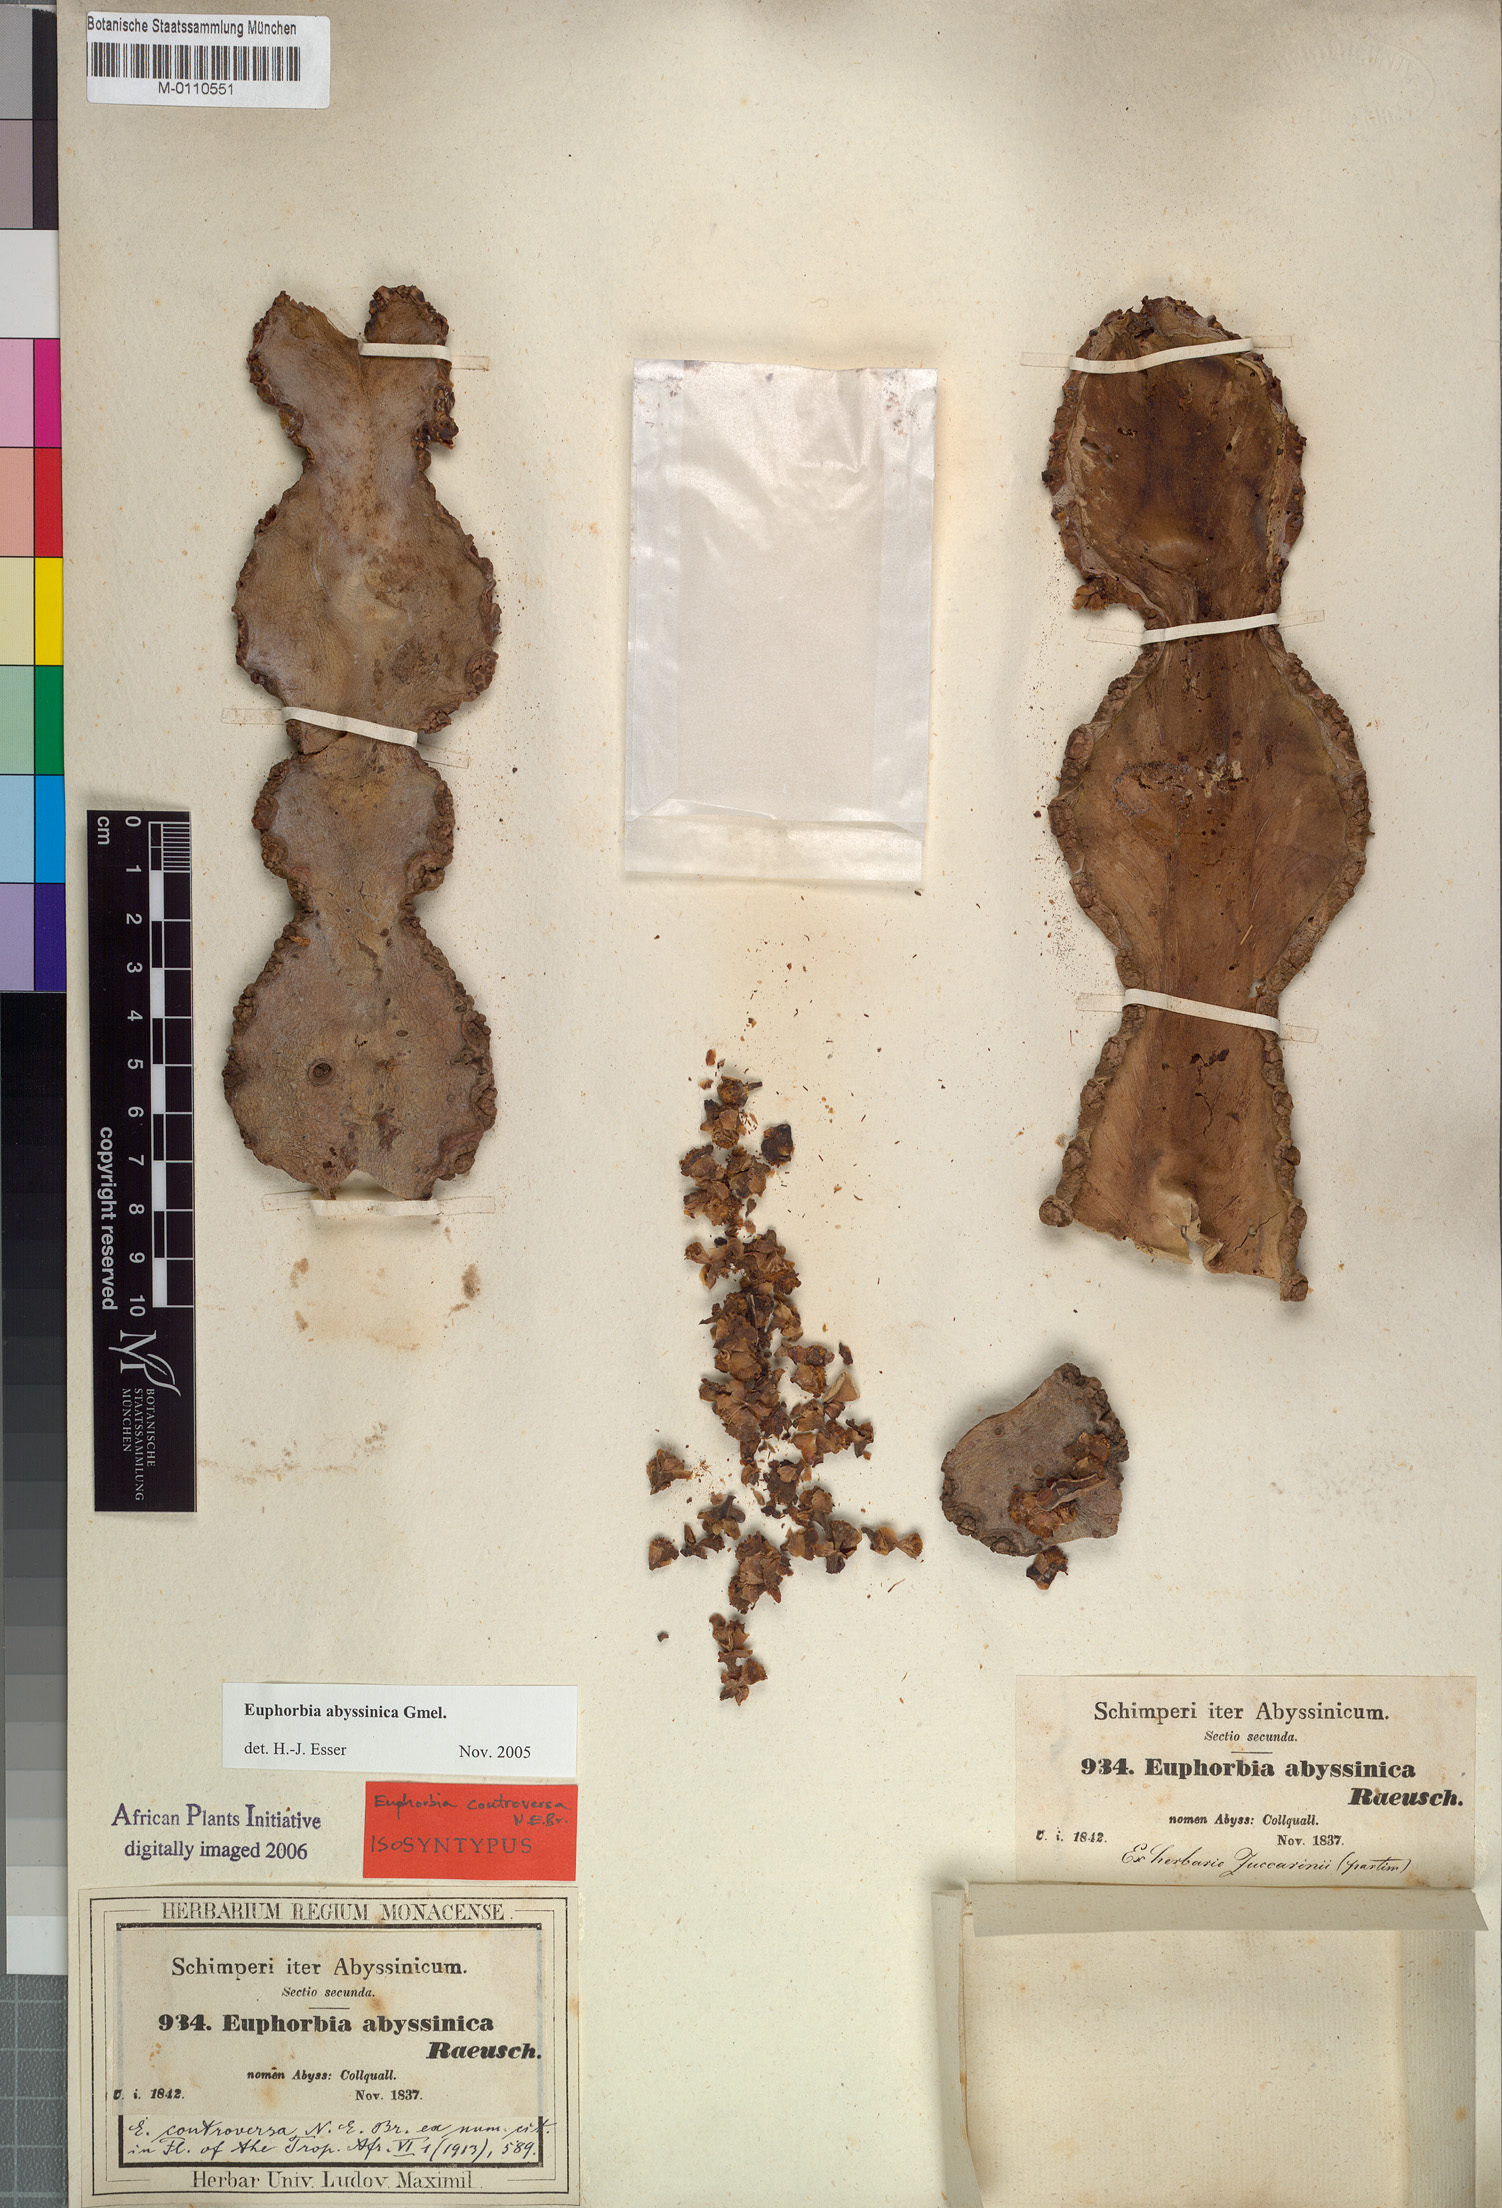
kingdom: Plantae
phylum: Tracheophyta
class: Magnoliopsida
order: Malpighiales
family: Euphorbiaceae
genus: Euphorbia
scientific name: Euphorbia abyssinica
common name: Abyssinian spurge
